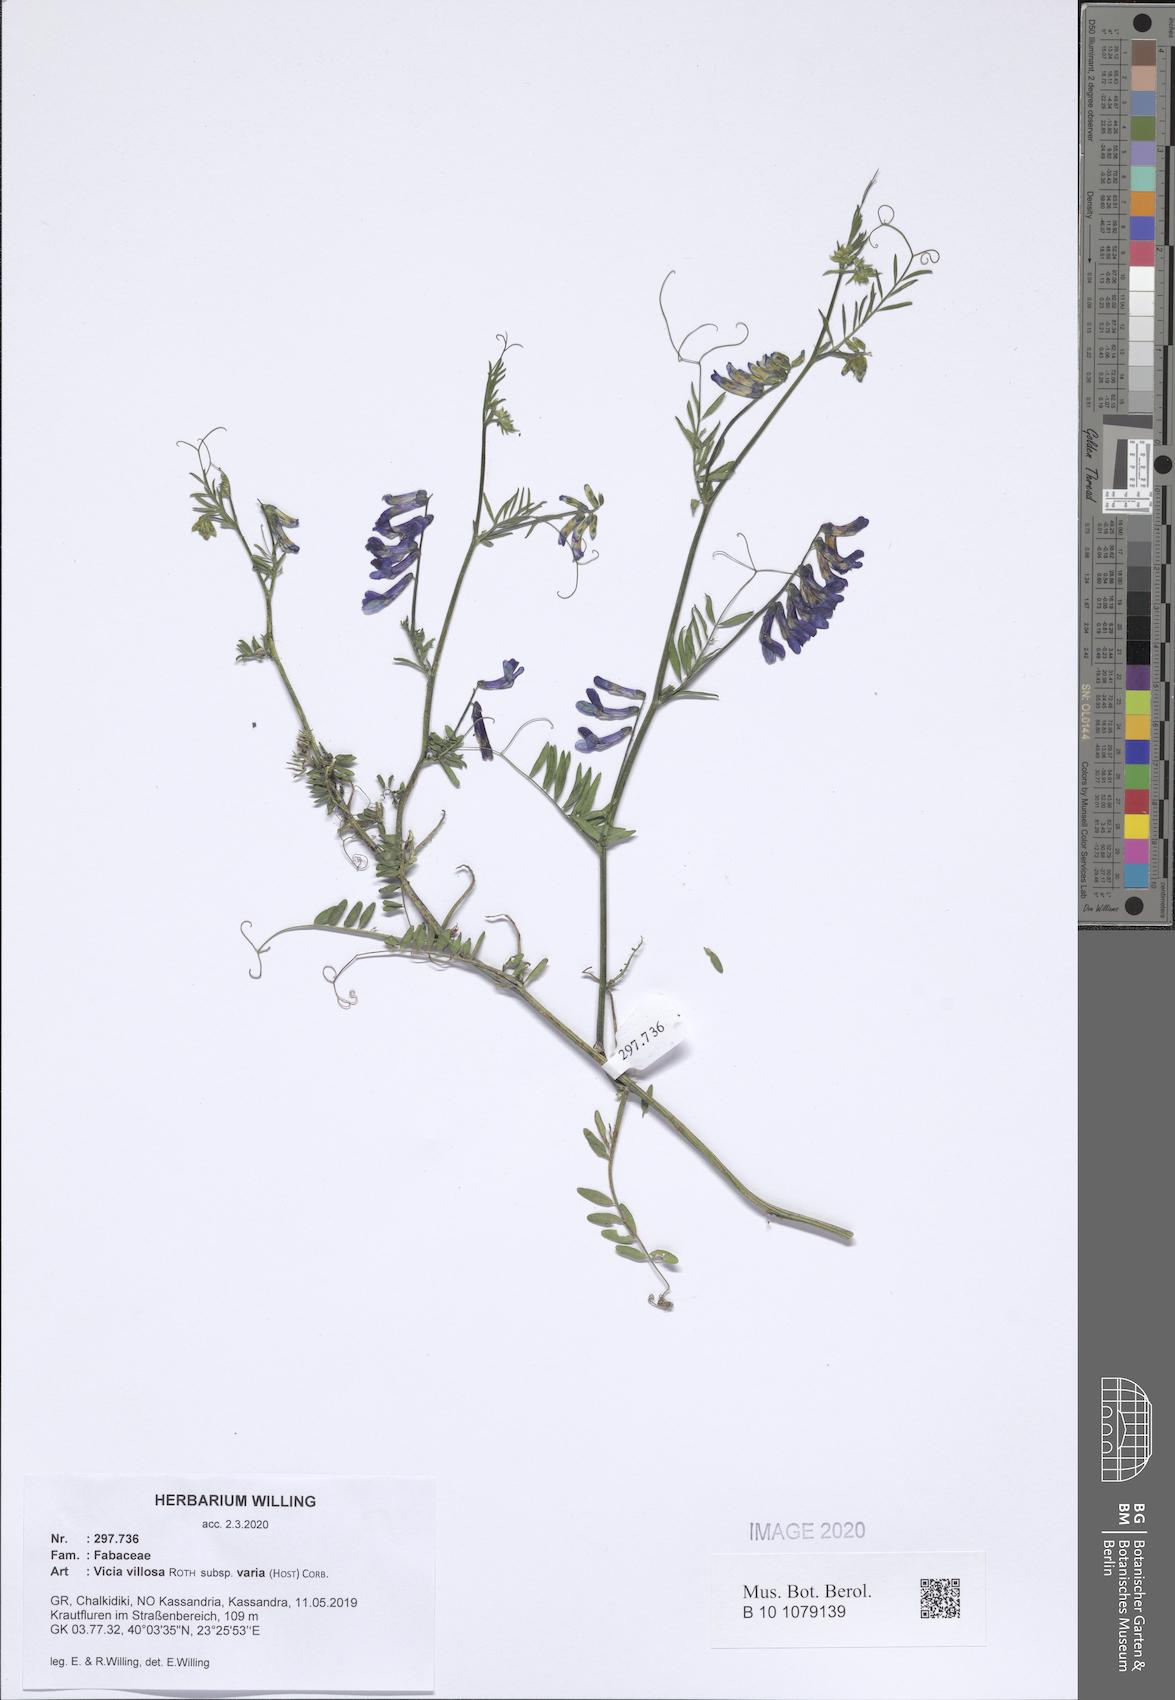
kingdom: Plantae
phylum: Tracheophyta
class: Magnoliopsida
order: Fabales
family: Fabaceae
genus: Vicia
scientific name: Vicia villosa
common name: Fodder vetch
